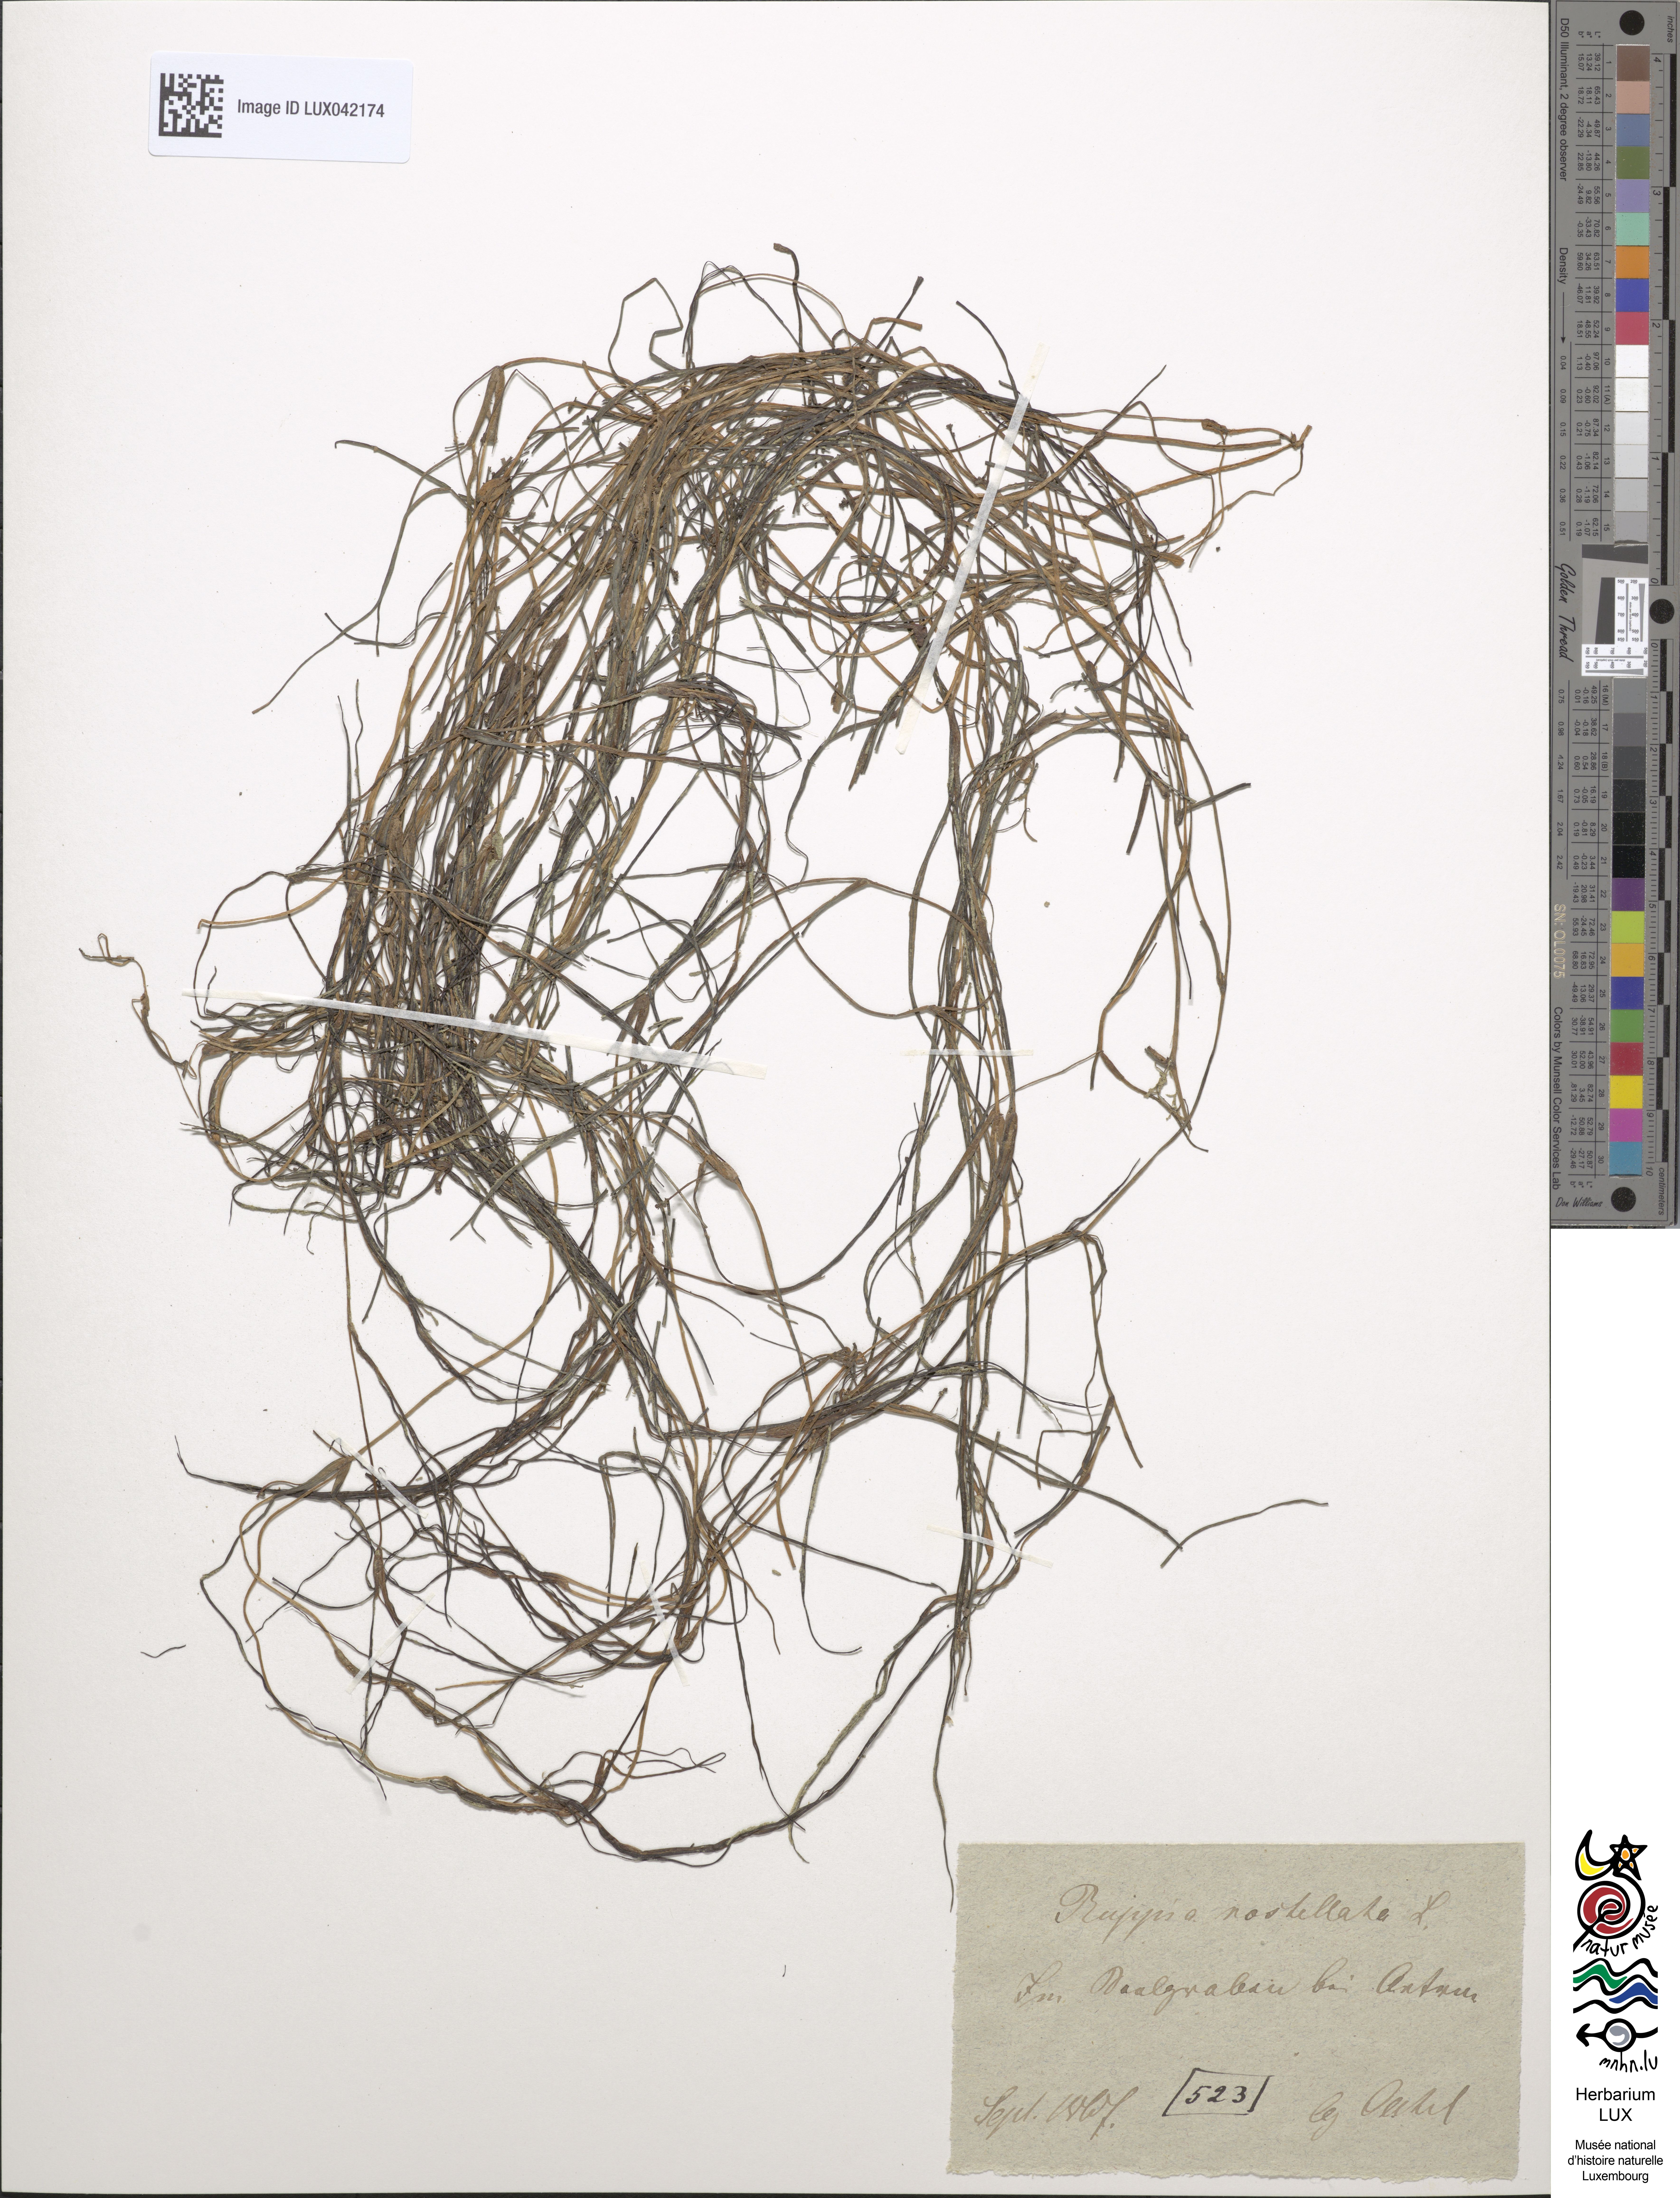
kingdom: Plantae
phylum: Tracheophyta
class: Liliopsida
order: Alismatales
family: Ruppiaceae
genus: Ruppia
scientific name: Ruppia maritima
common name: Beaked tasselweed
